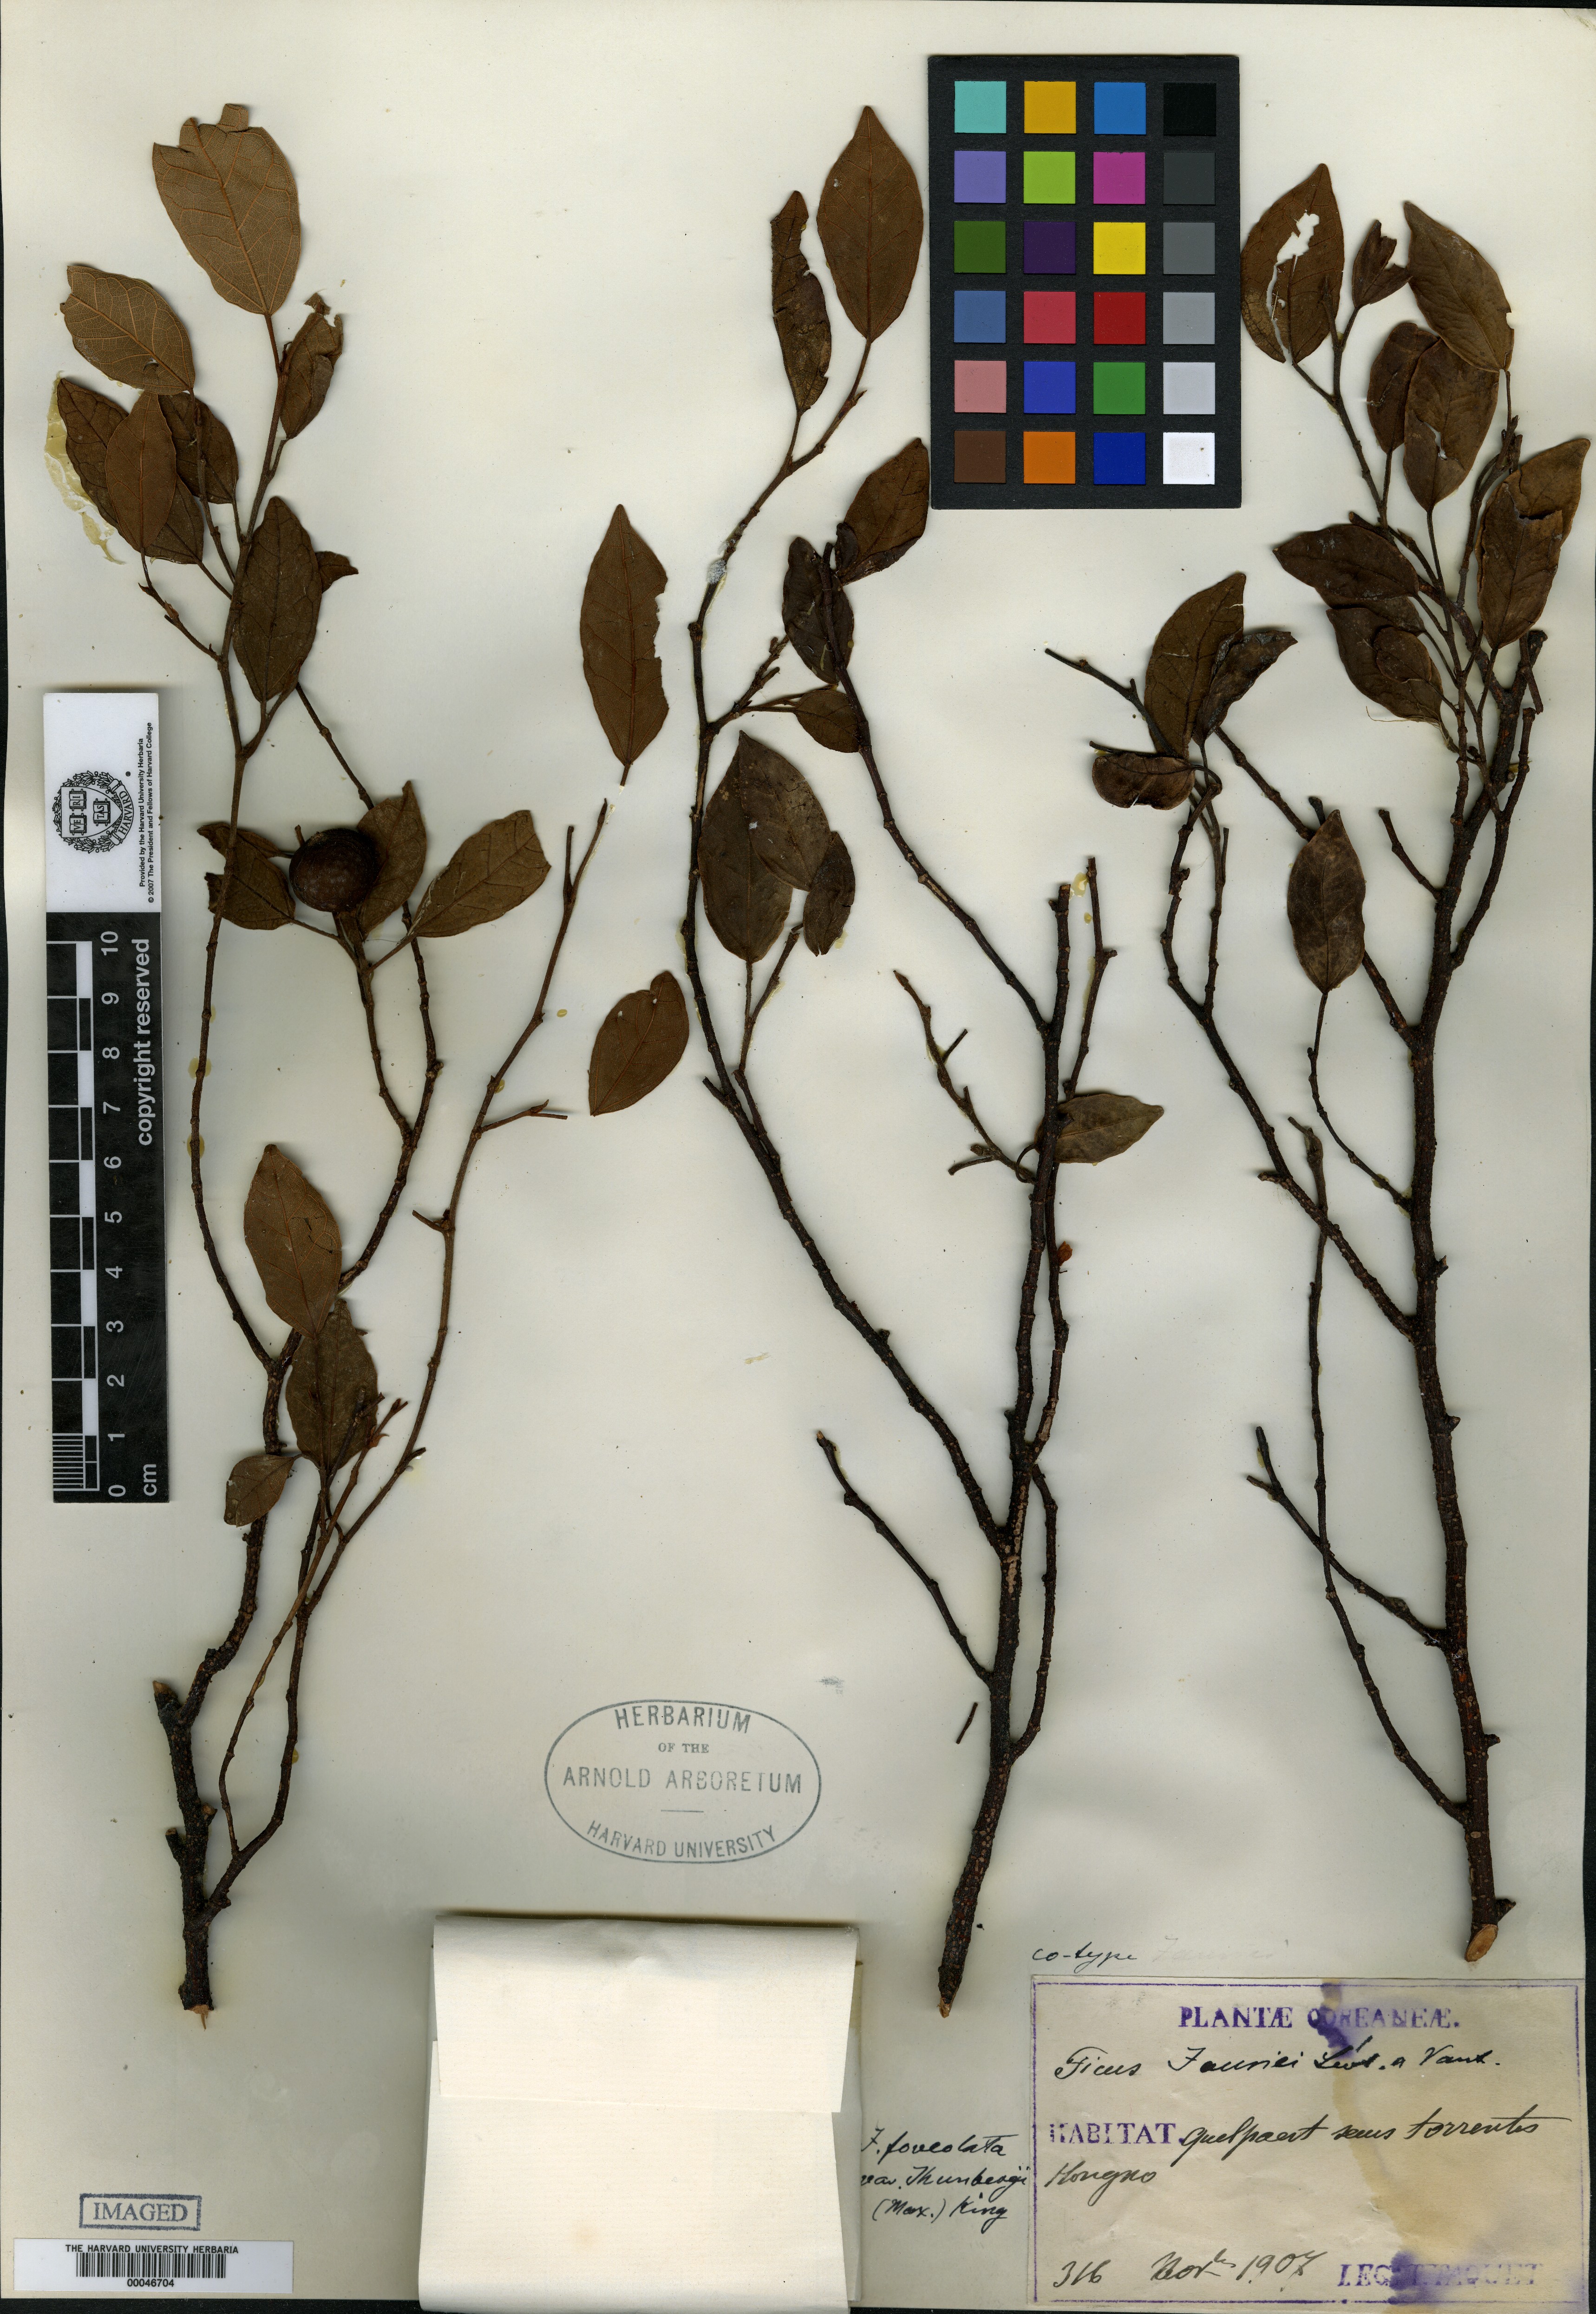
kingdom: Plantae
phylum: Tracheophyta
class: Magnoliopsida
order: Dipsacales
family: Viburnaceae
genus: Sambucus
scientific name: Sambucus sieboldiana
